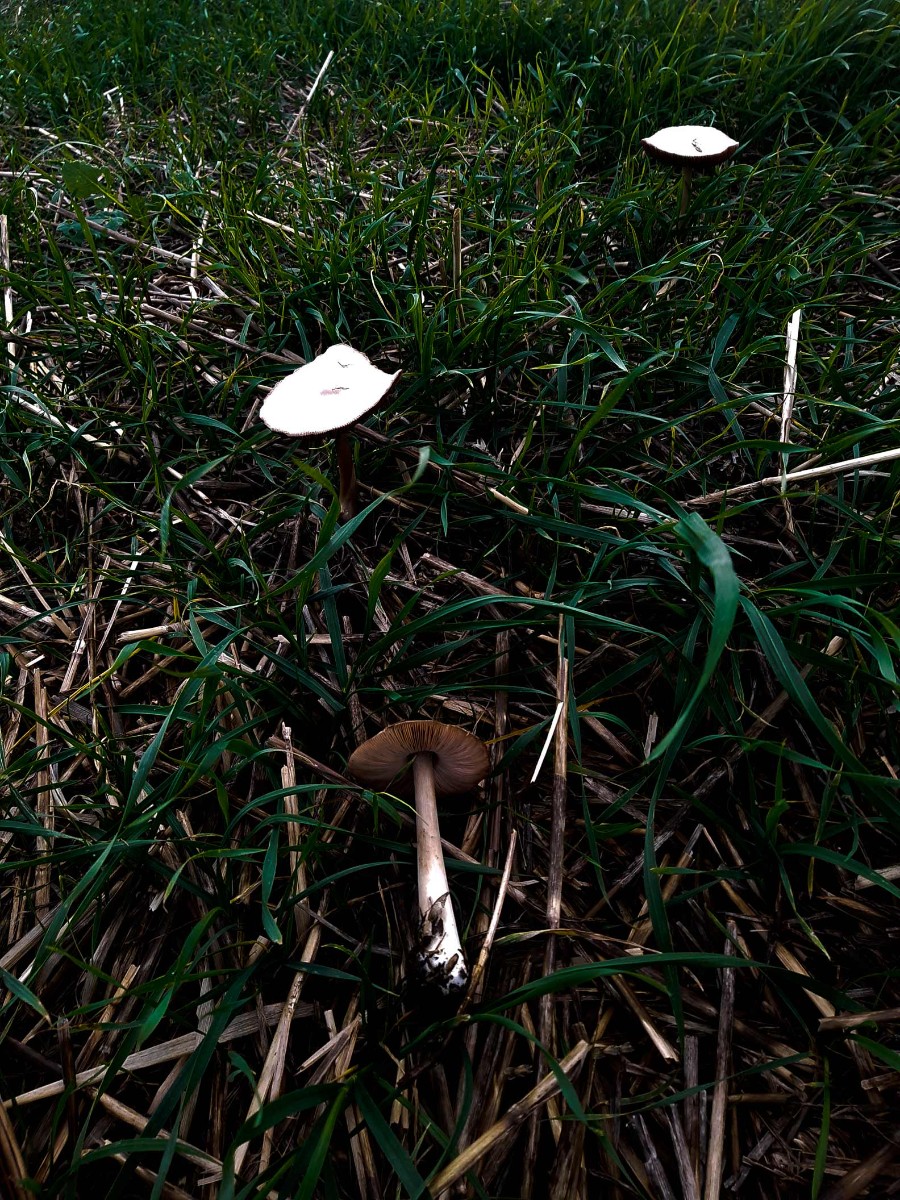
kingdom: Fungi
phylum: Basidiomycota
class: Agaricomycetes
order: Agaricales
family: Pluteaceae
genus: Volvopluteus
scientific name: Volvopluteus gloiocephalus
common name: høj posesvamp
